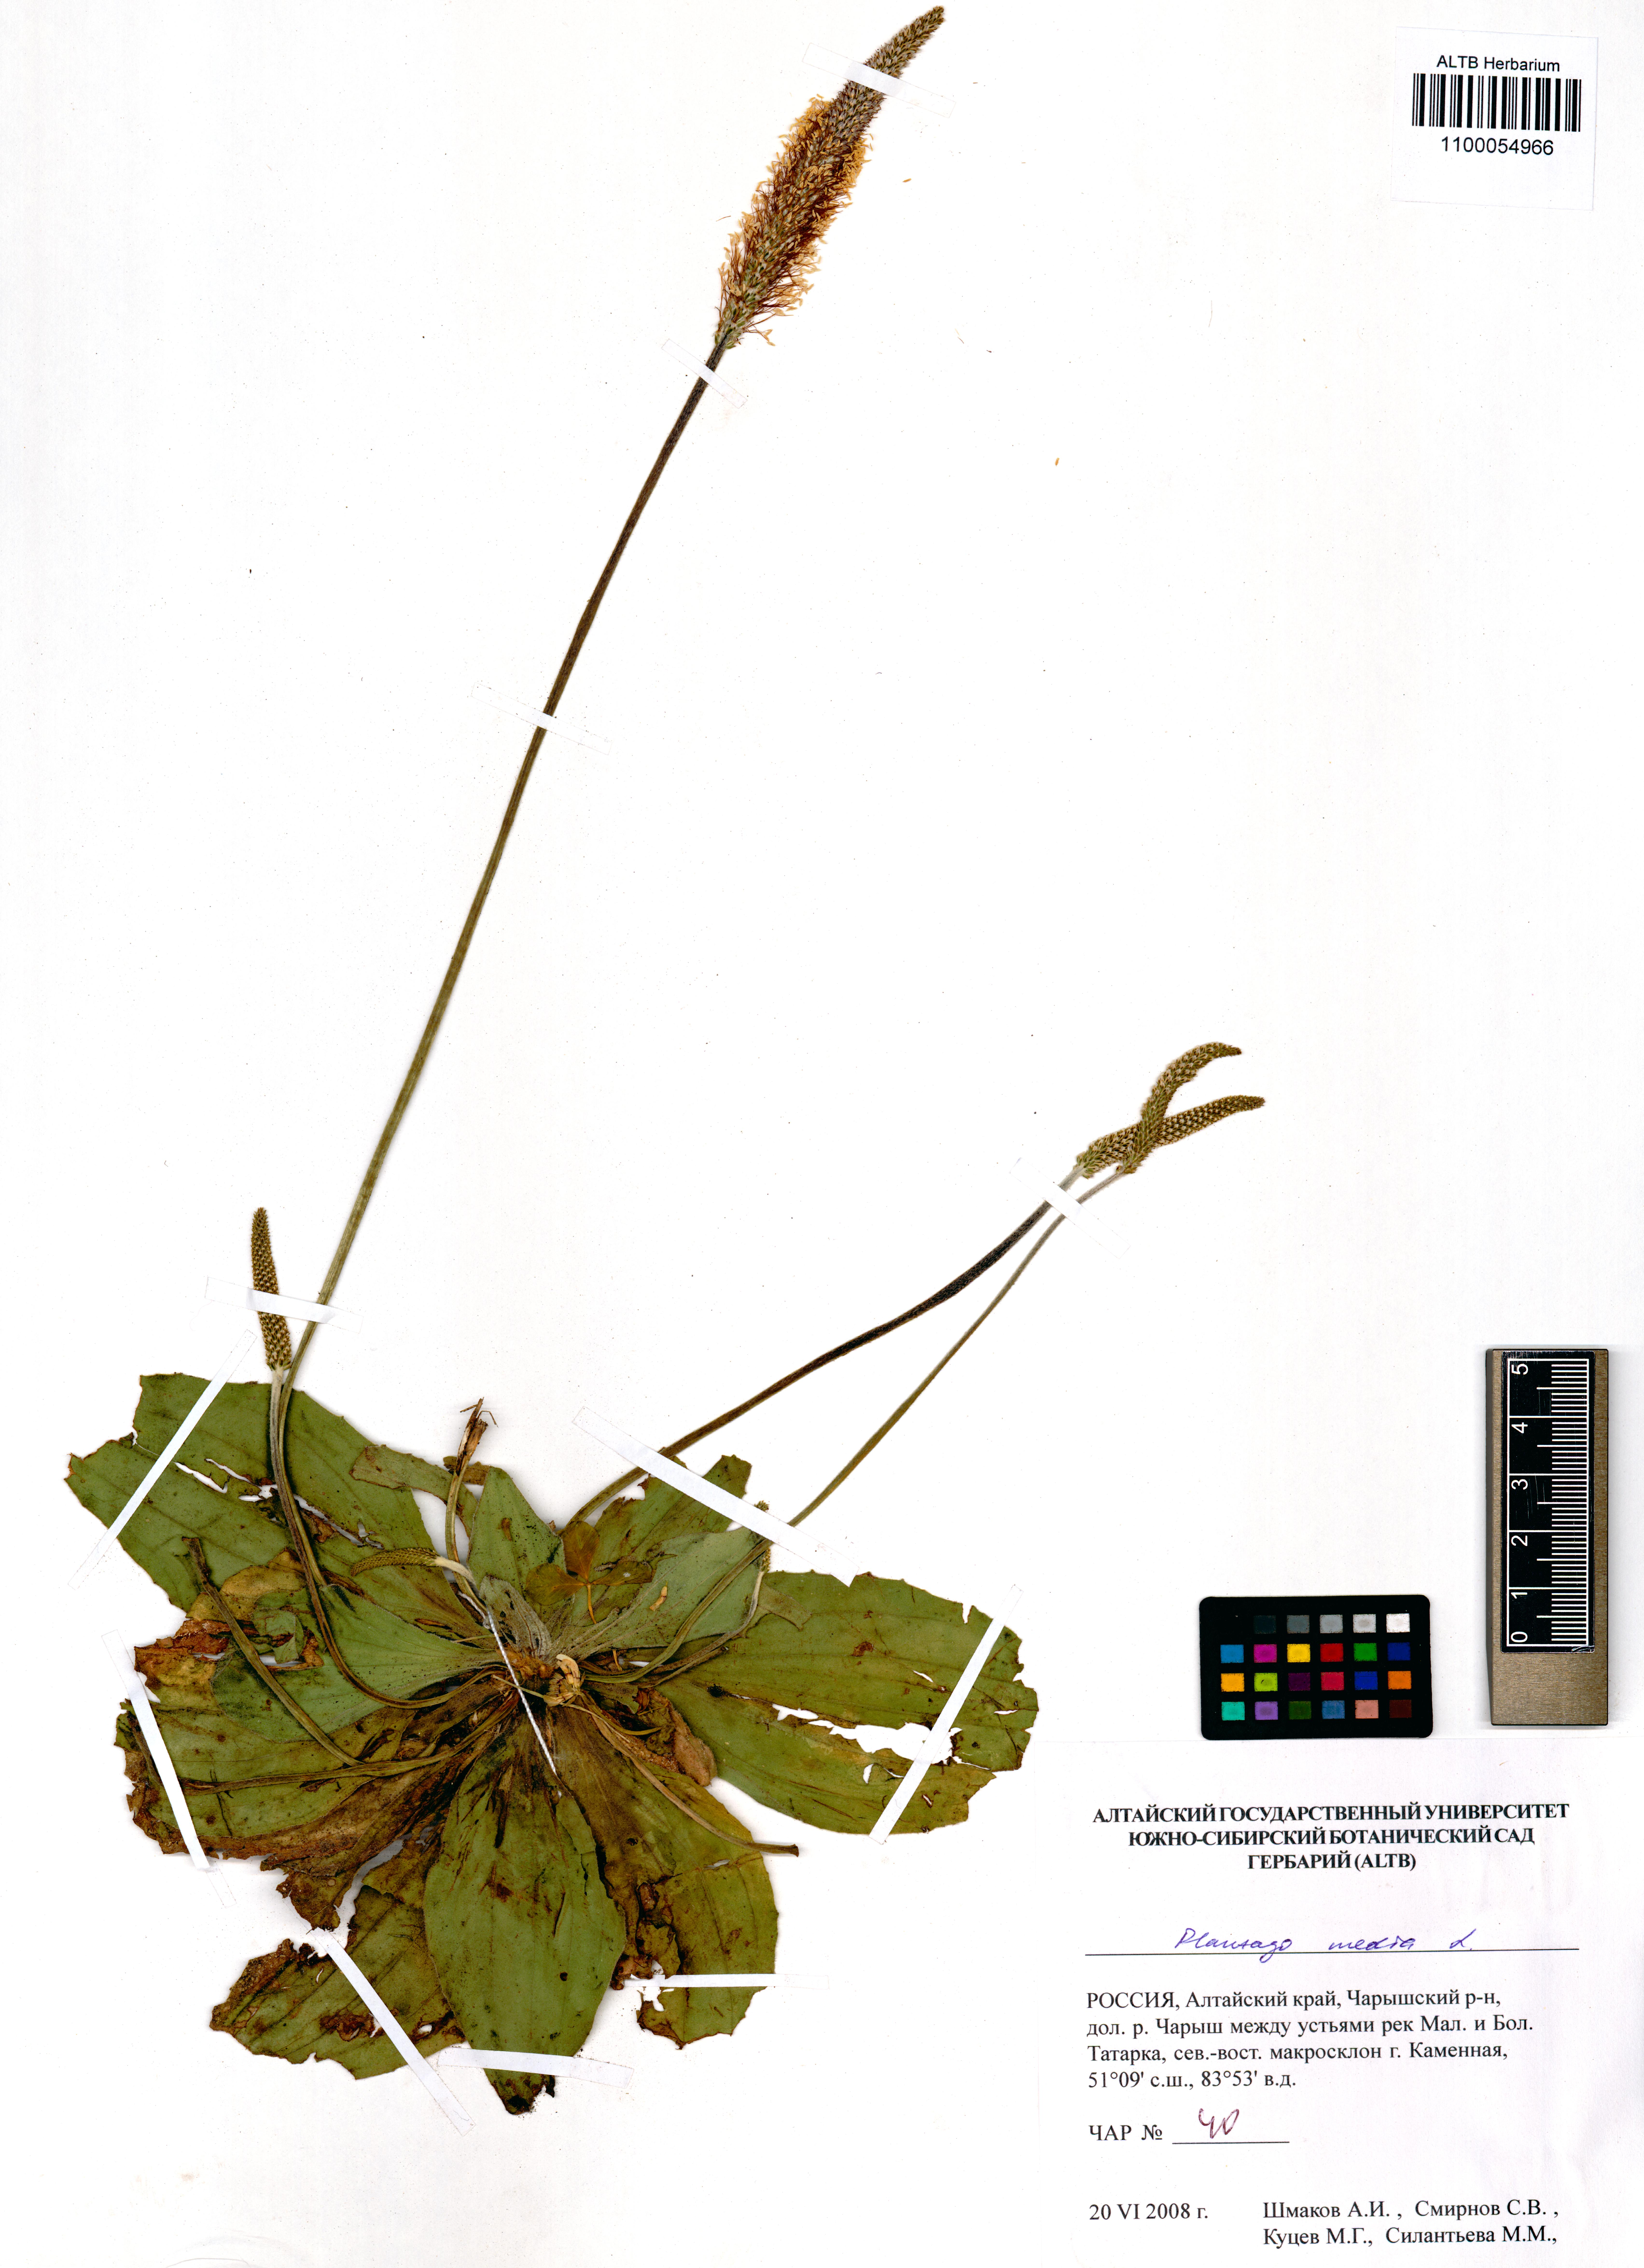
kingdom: Plantae
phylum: Tracheophyta
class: Magnoliopsida
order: Lamiales
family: Plantaginaceae
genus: Plantago
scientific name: Plantago media
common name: Hoary plantain
